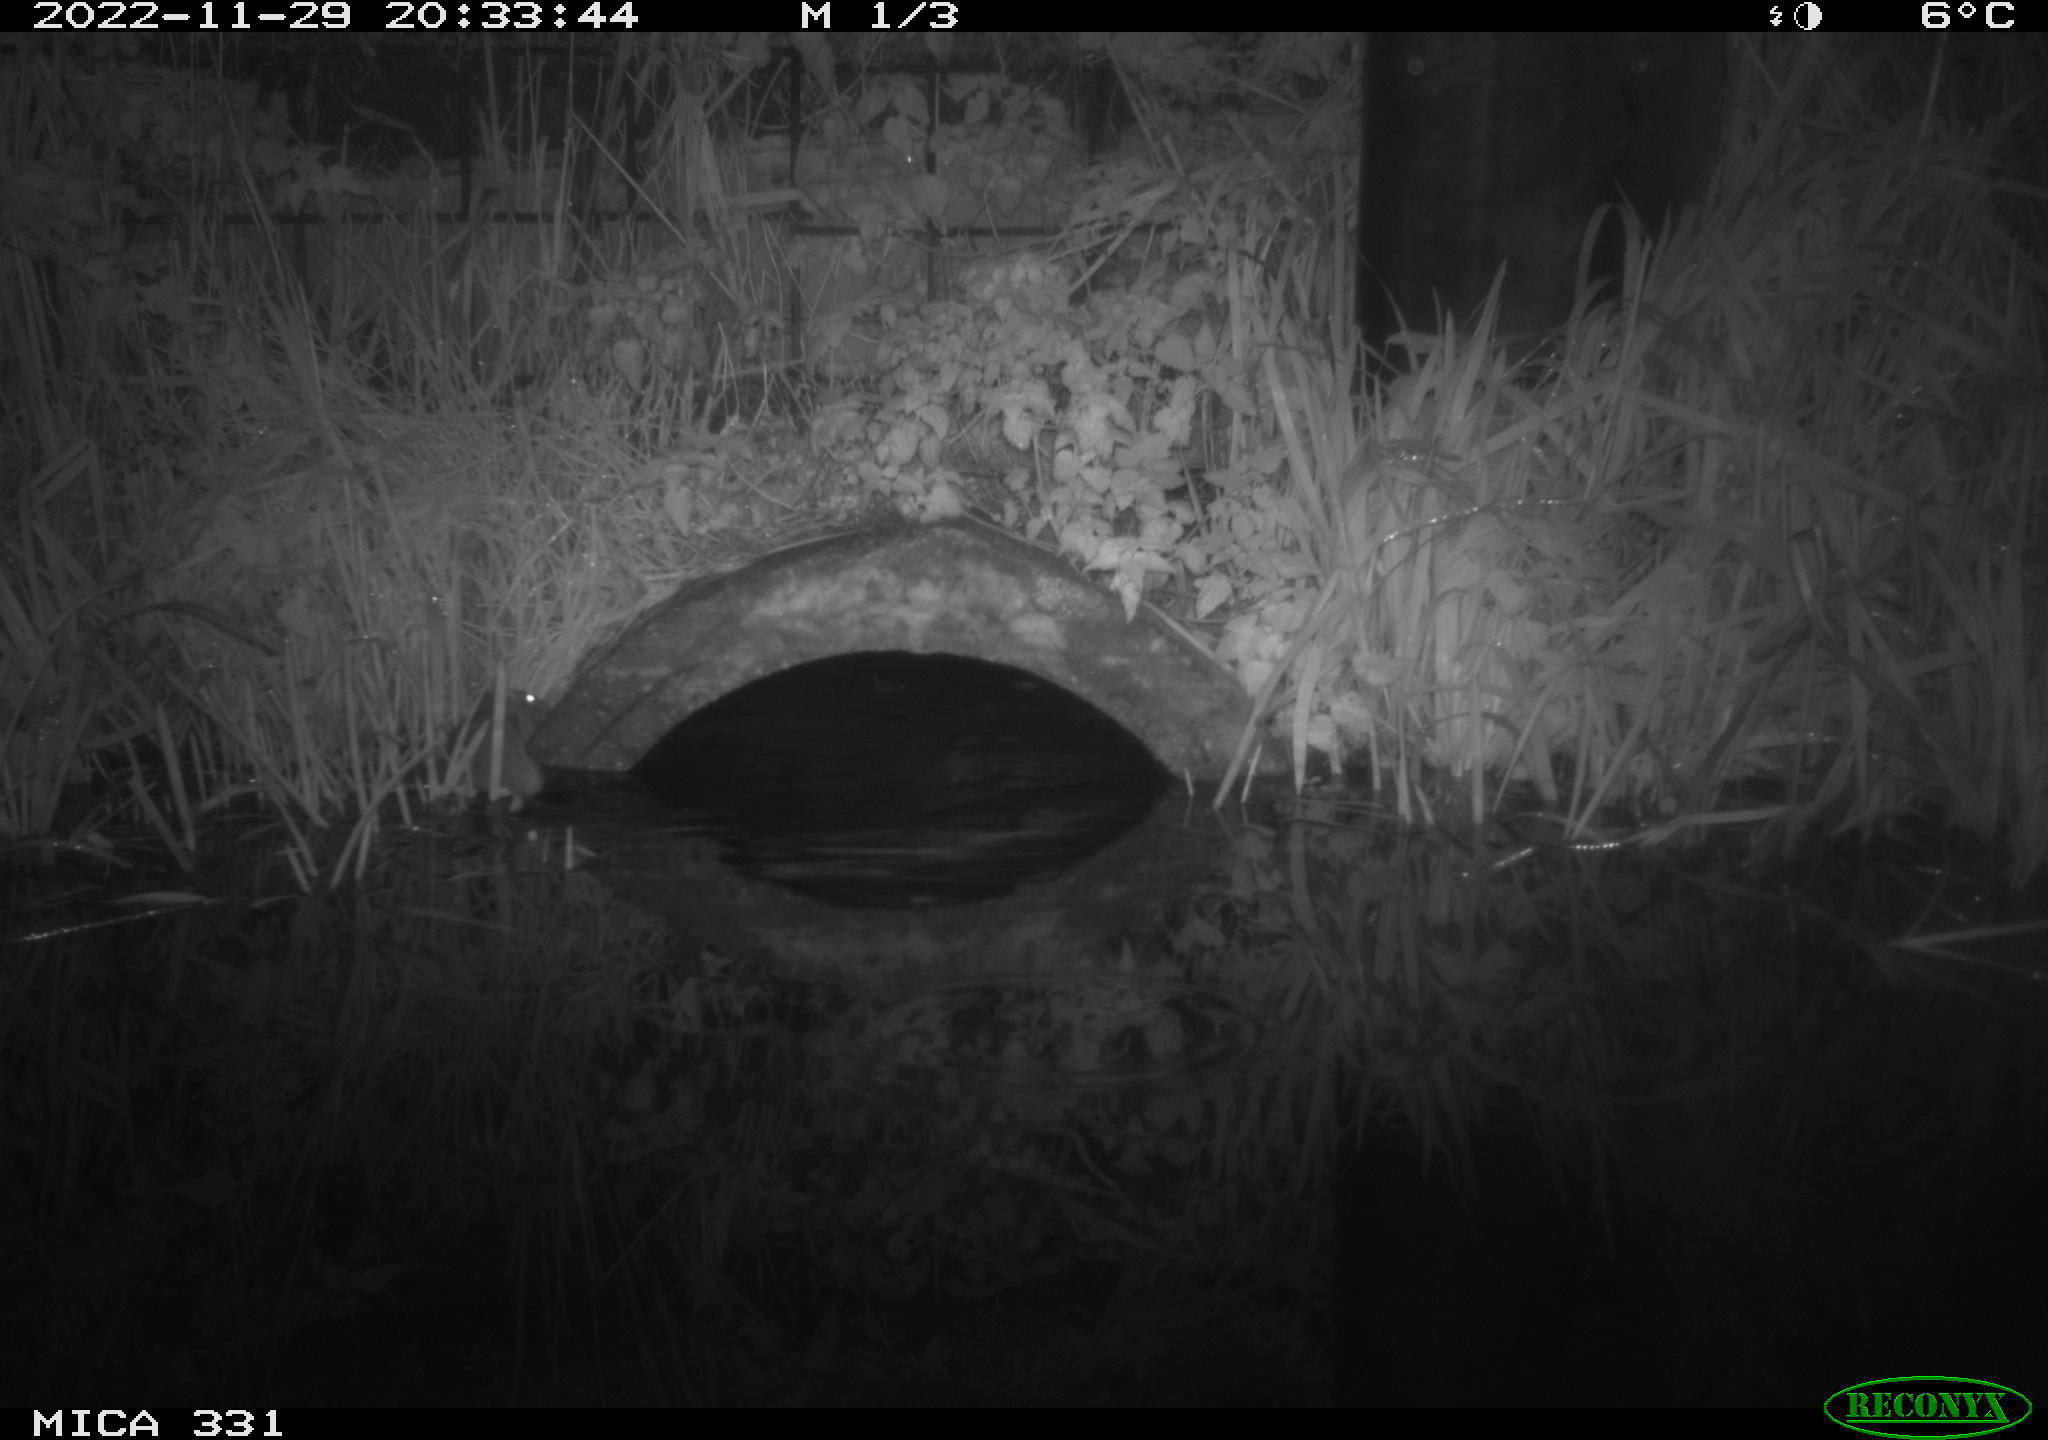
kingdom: Animalia
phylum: Chordata
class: Mammalia
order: Rodentia
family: Muridae
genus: Rattus
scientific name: Rattus norvegicus
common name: Brown rat
